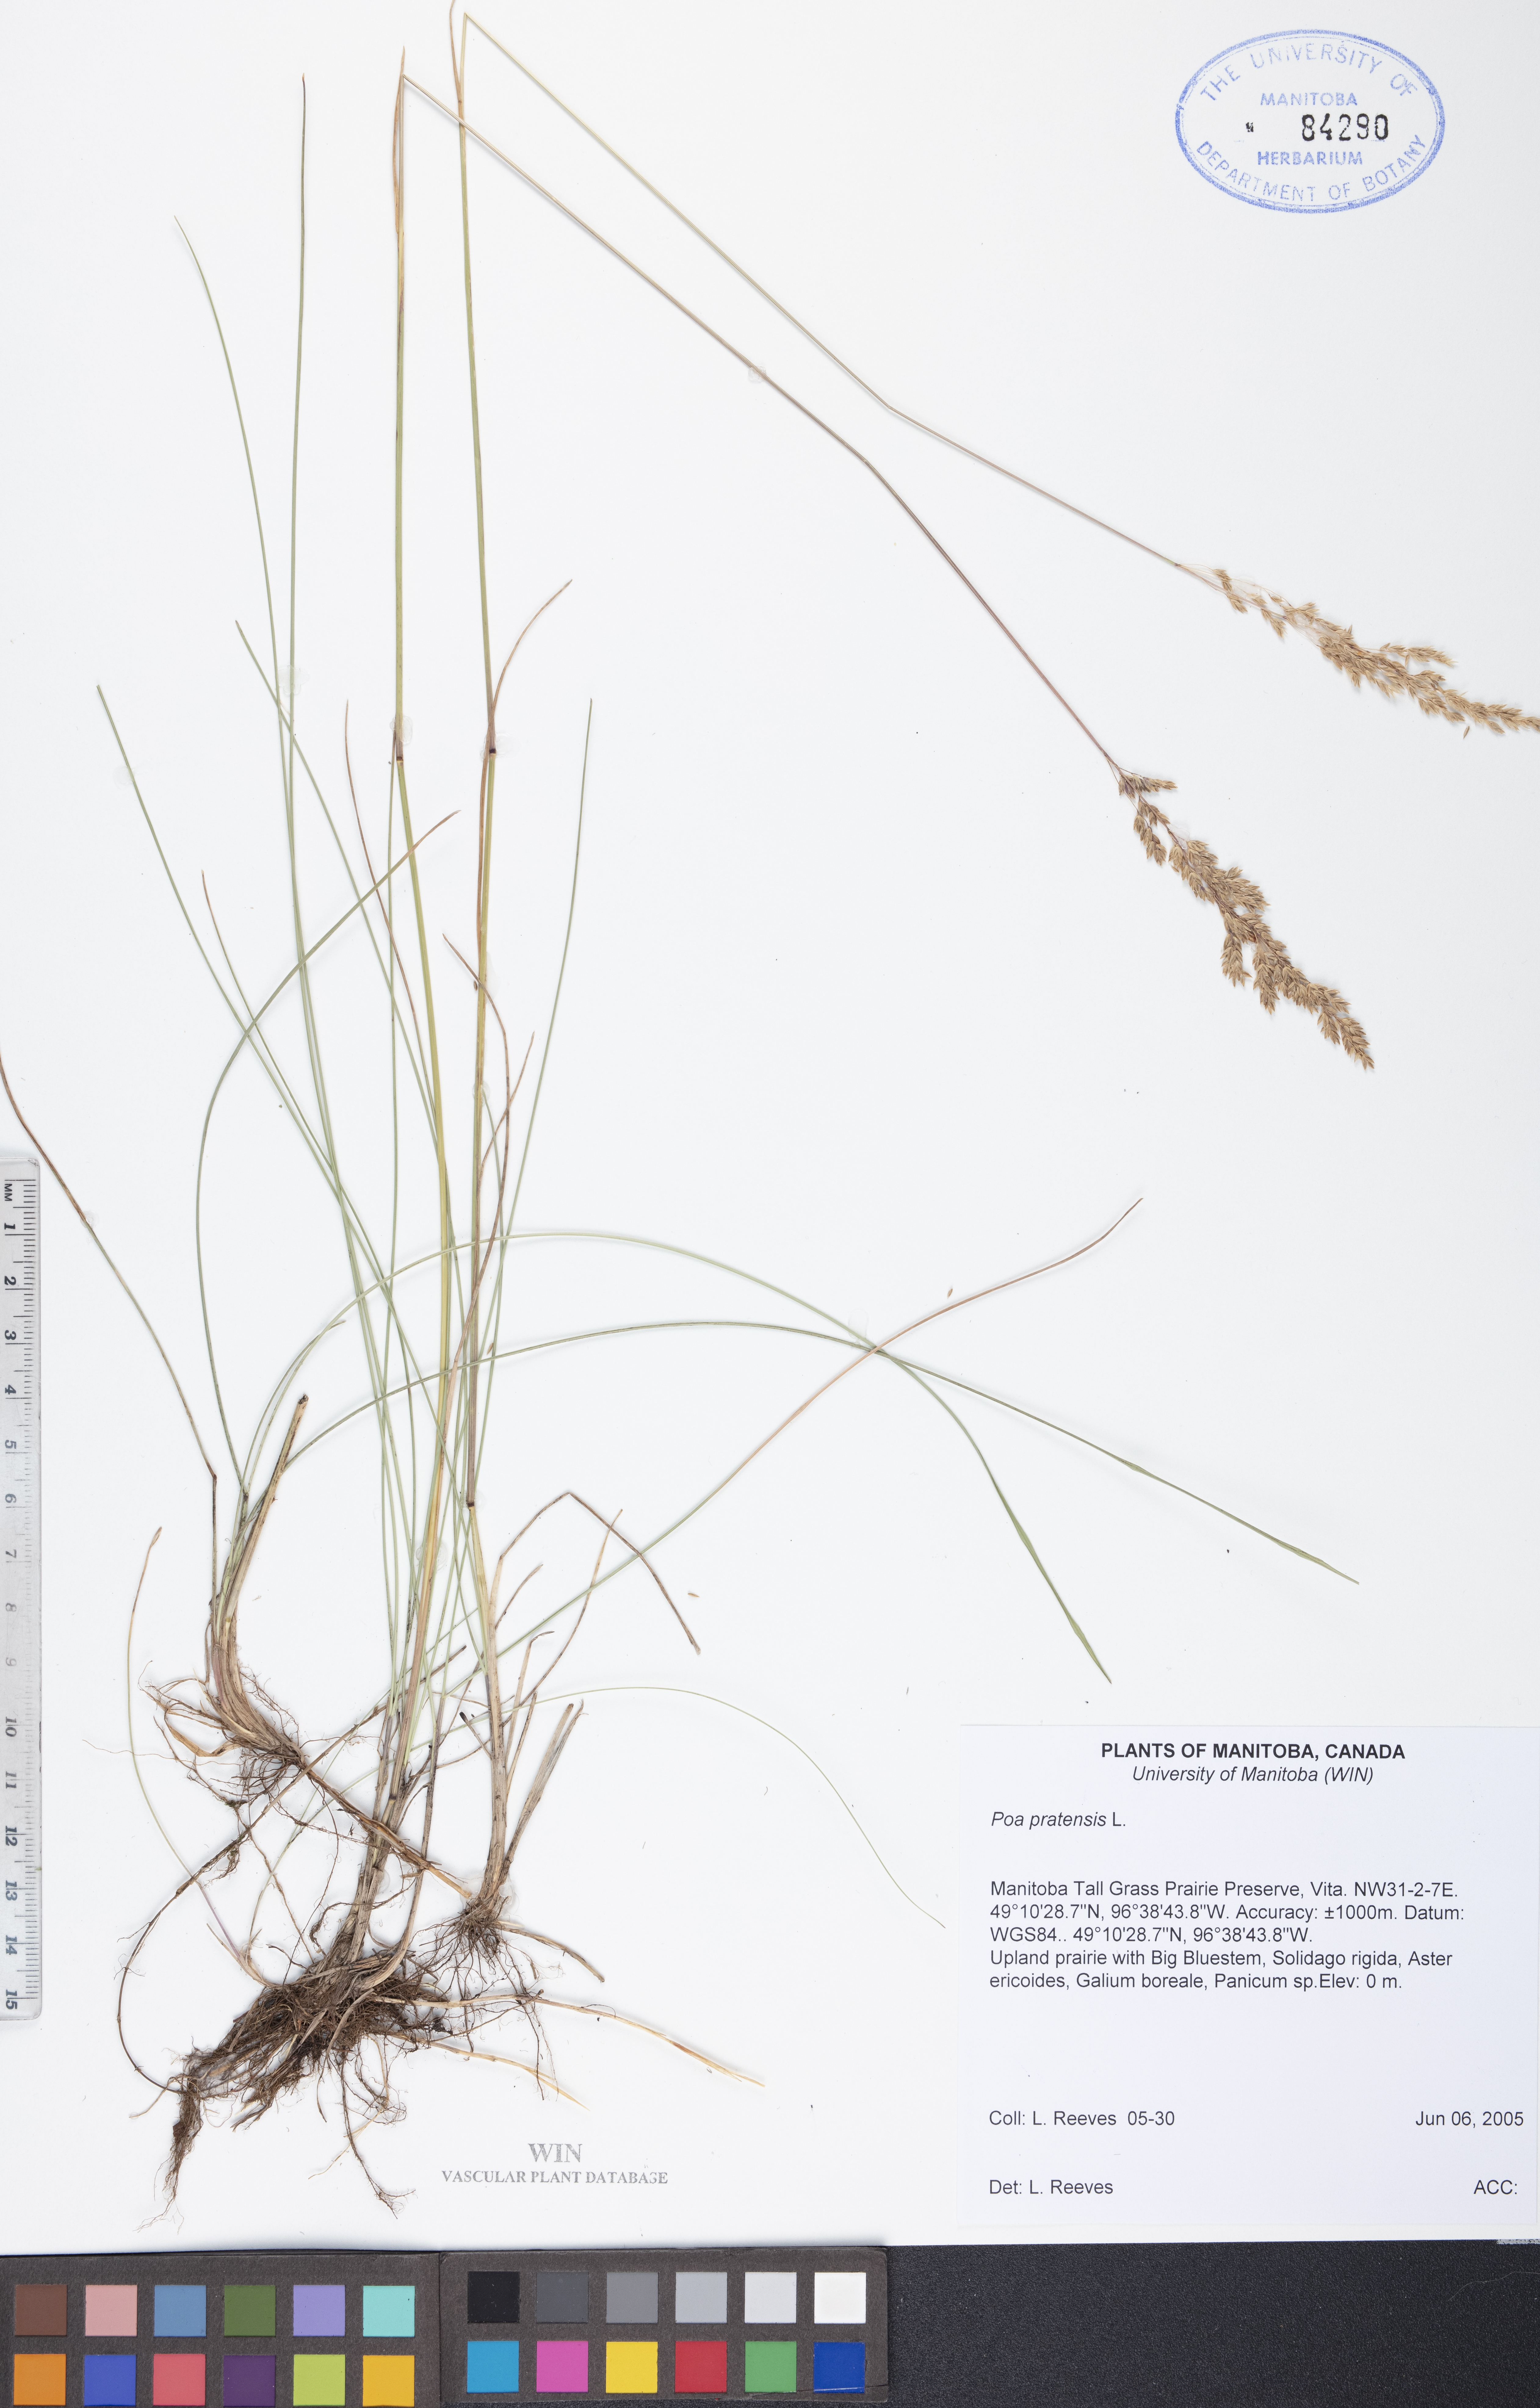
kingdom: Plantae
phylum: Tracheophyta
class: Liliopsida
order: Poales
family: Poaceae
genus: Poa
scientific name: Poa pratensis
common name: Kentucky bluegrass
